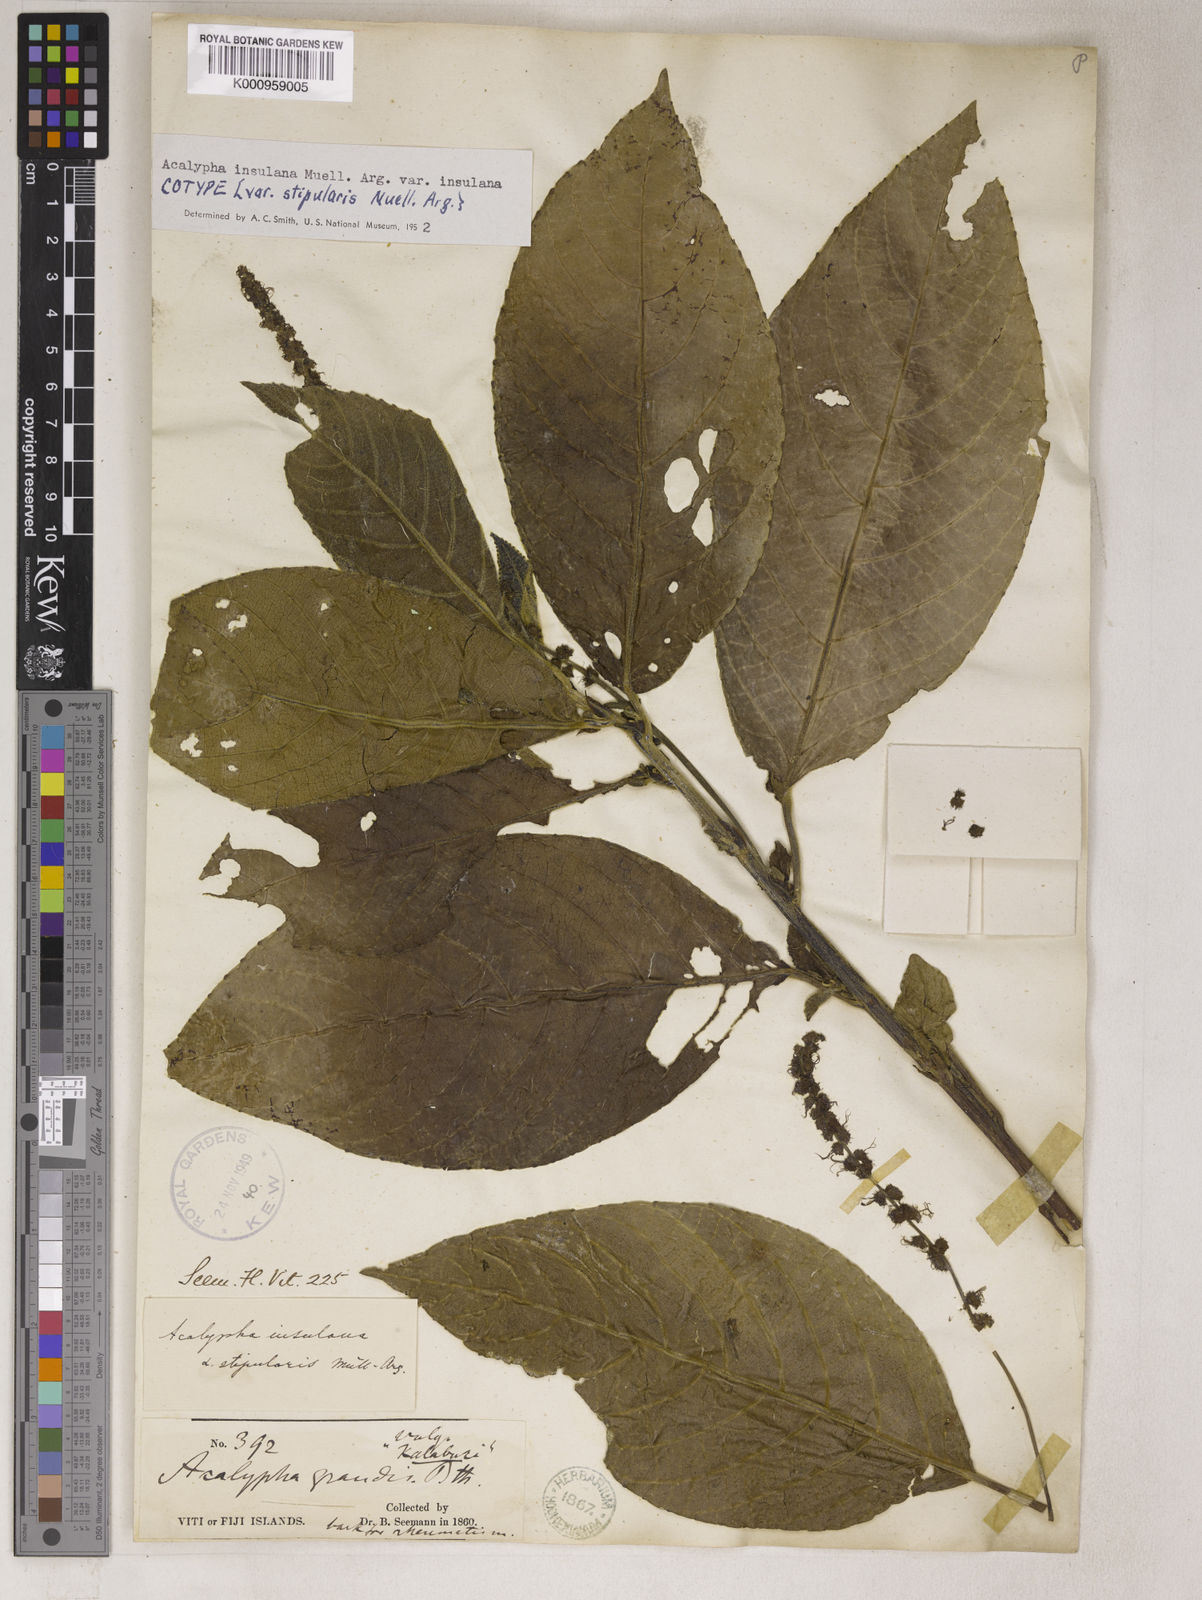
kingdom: Plantae
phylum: Tracheophyta
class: Magnoliopsida
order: Malpighiales
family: Euphorbiaceae
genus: Acalypha
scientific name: Acalypha
